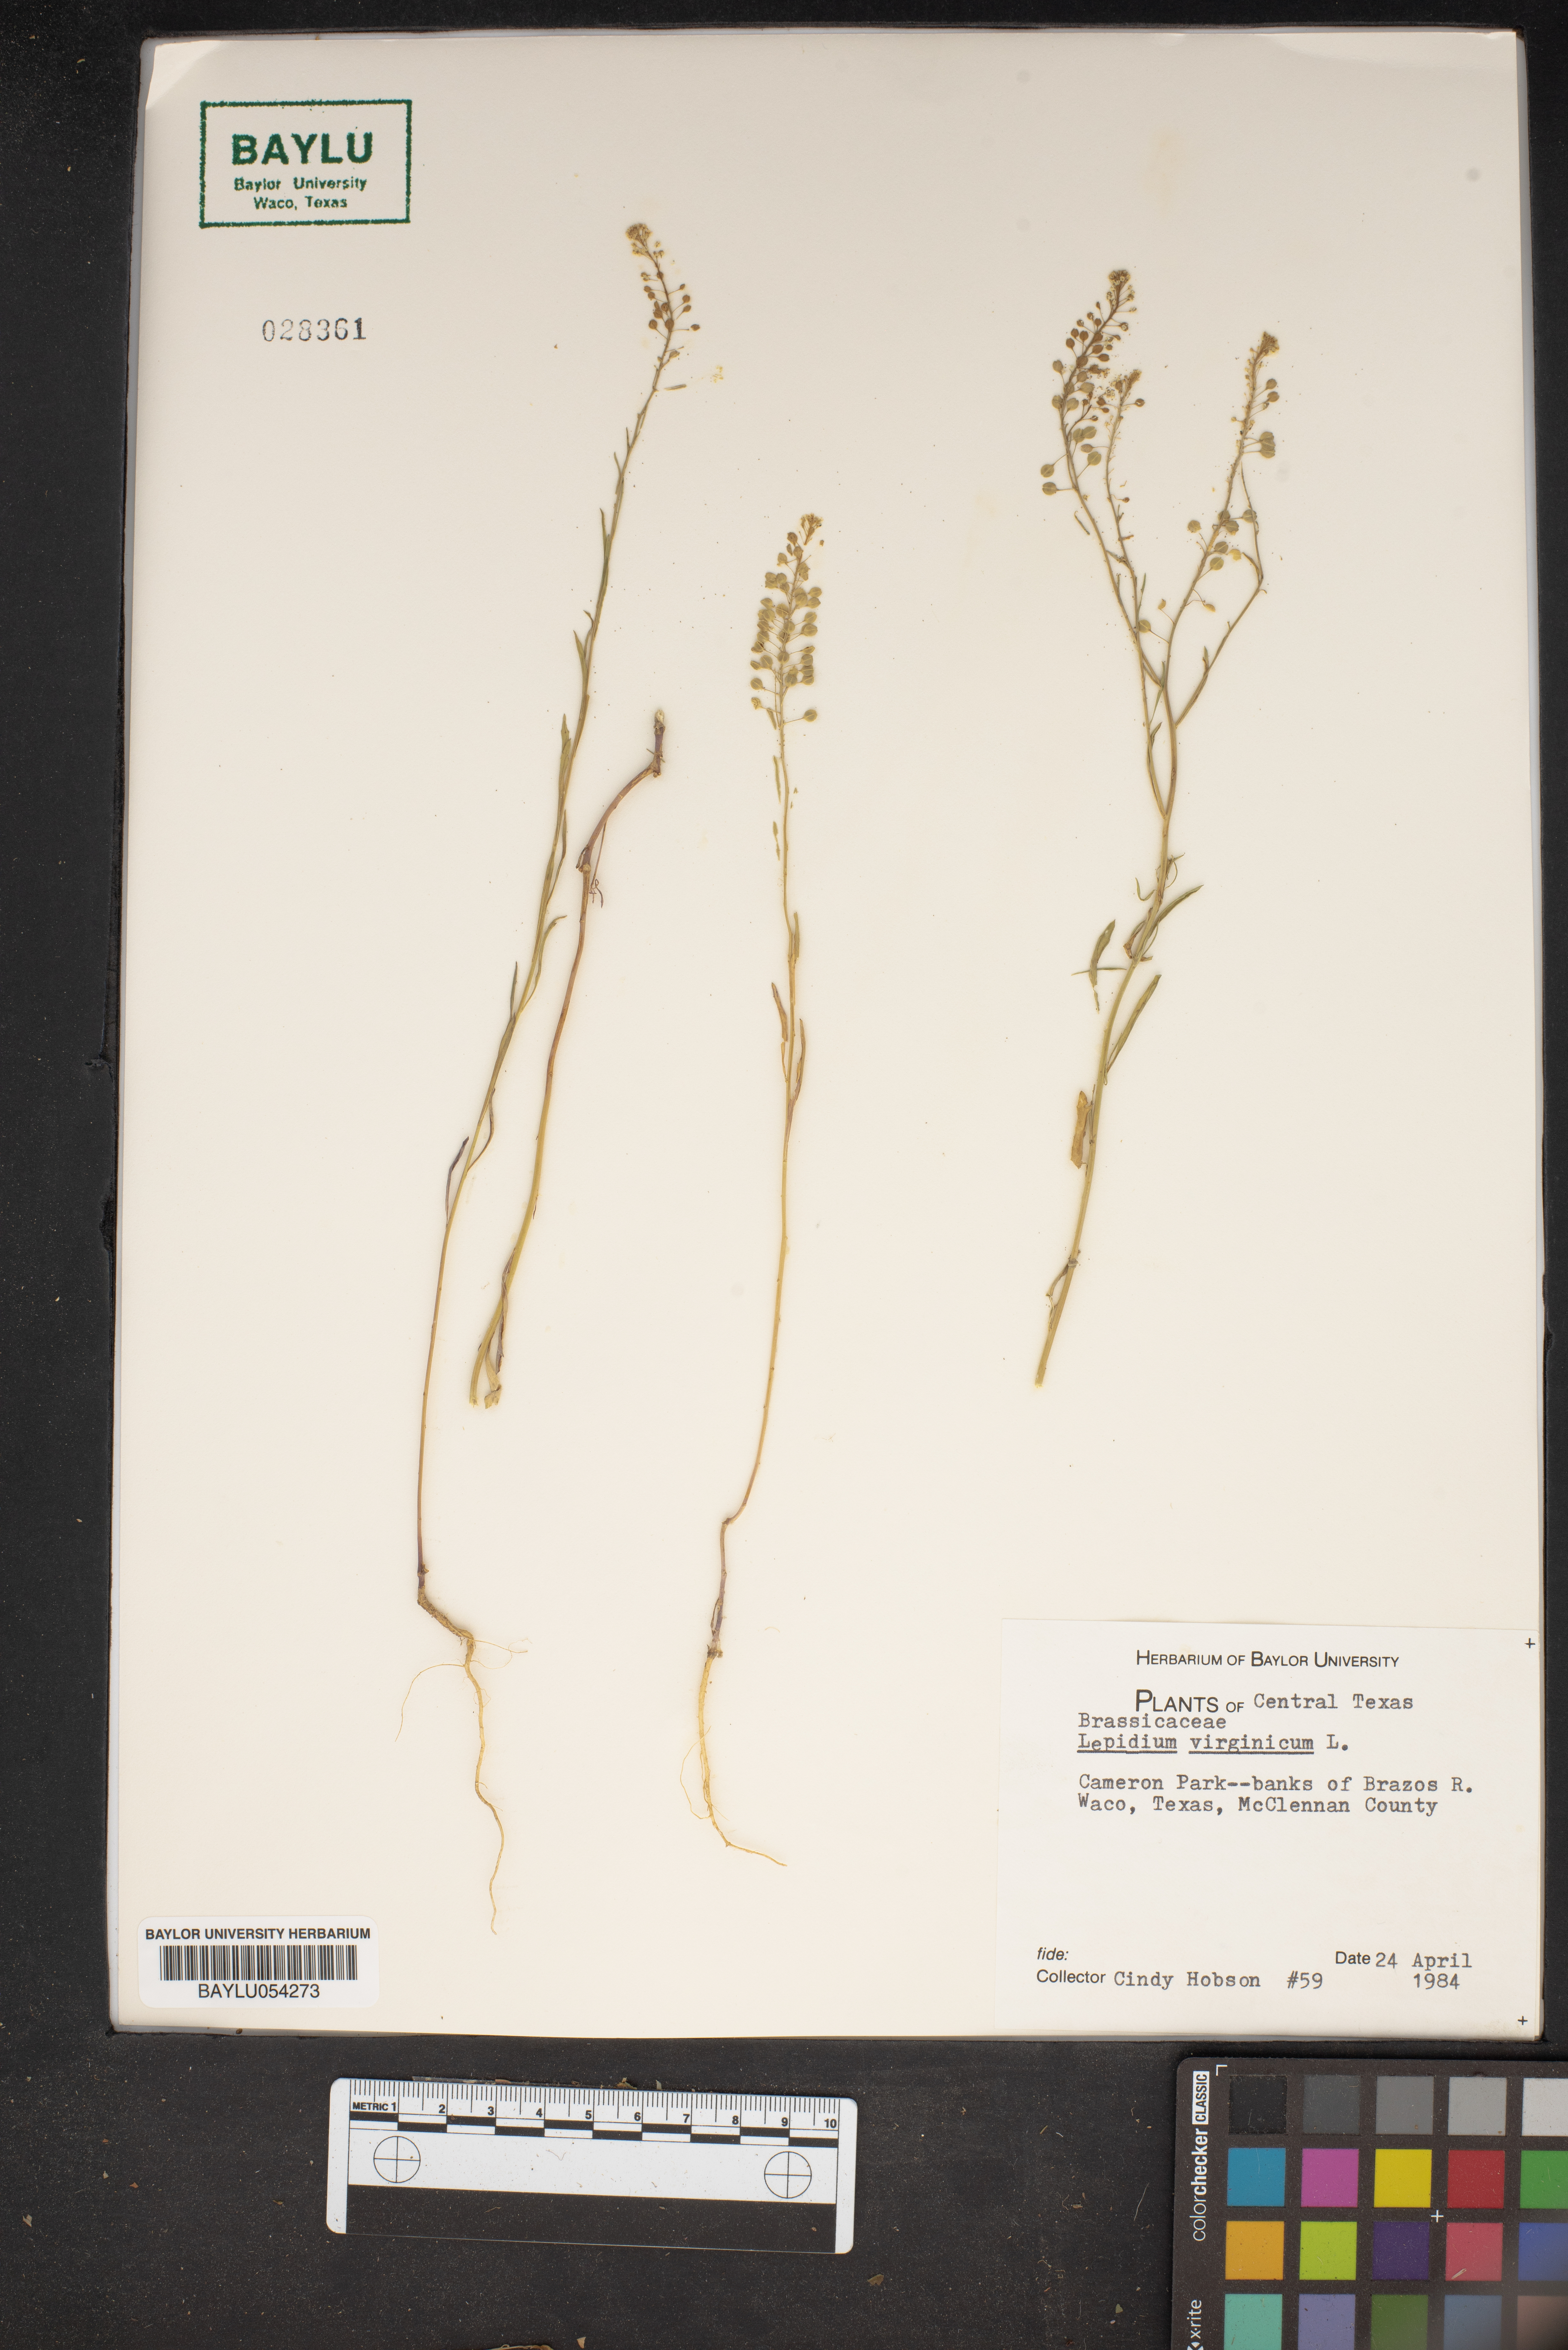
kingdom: Plantae
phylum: Tracheophyta
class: Magnoliopsida
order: Brassicales
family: Brassicaceae
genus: Lepidium
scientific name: Lepidium virginicum
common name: Least pepperwort
